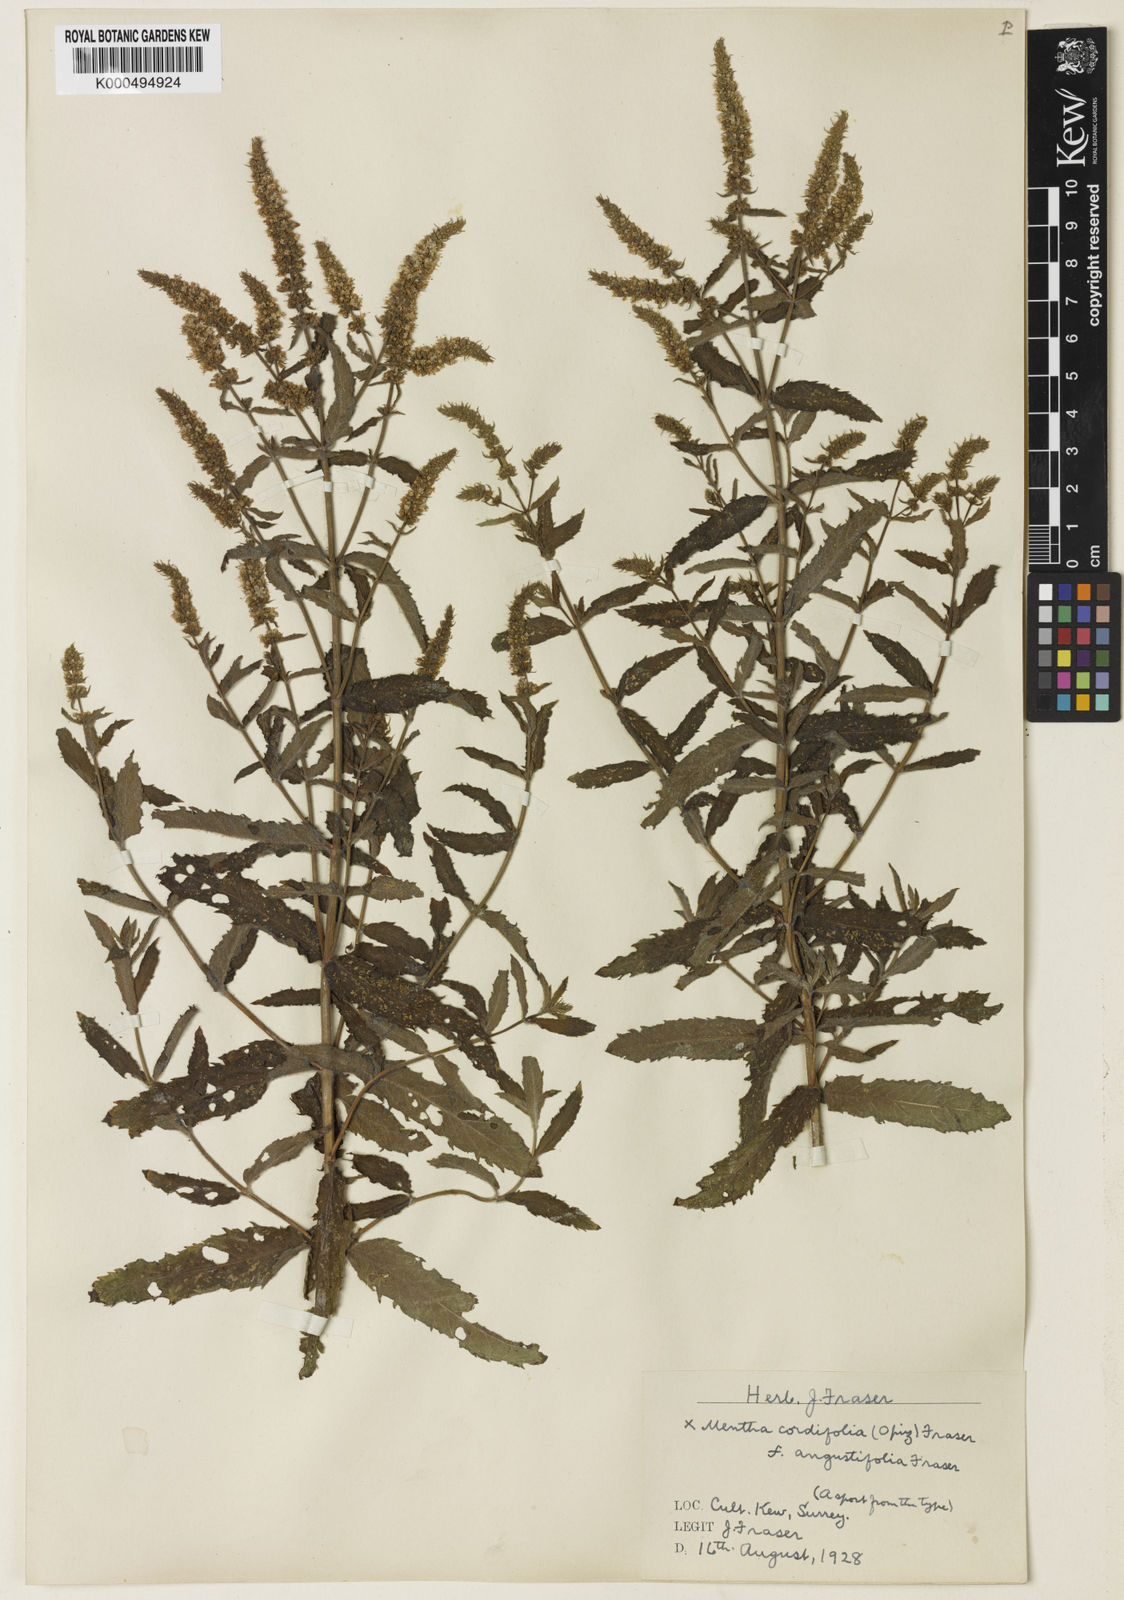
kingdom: Plantae
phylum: Tracheophyta
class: Magnoliopsida
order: Lamiales
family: Lamiaceae
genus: Mentha
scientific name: Mentha spicata
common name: Spearmint
